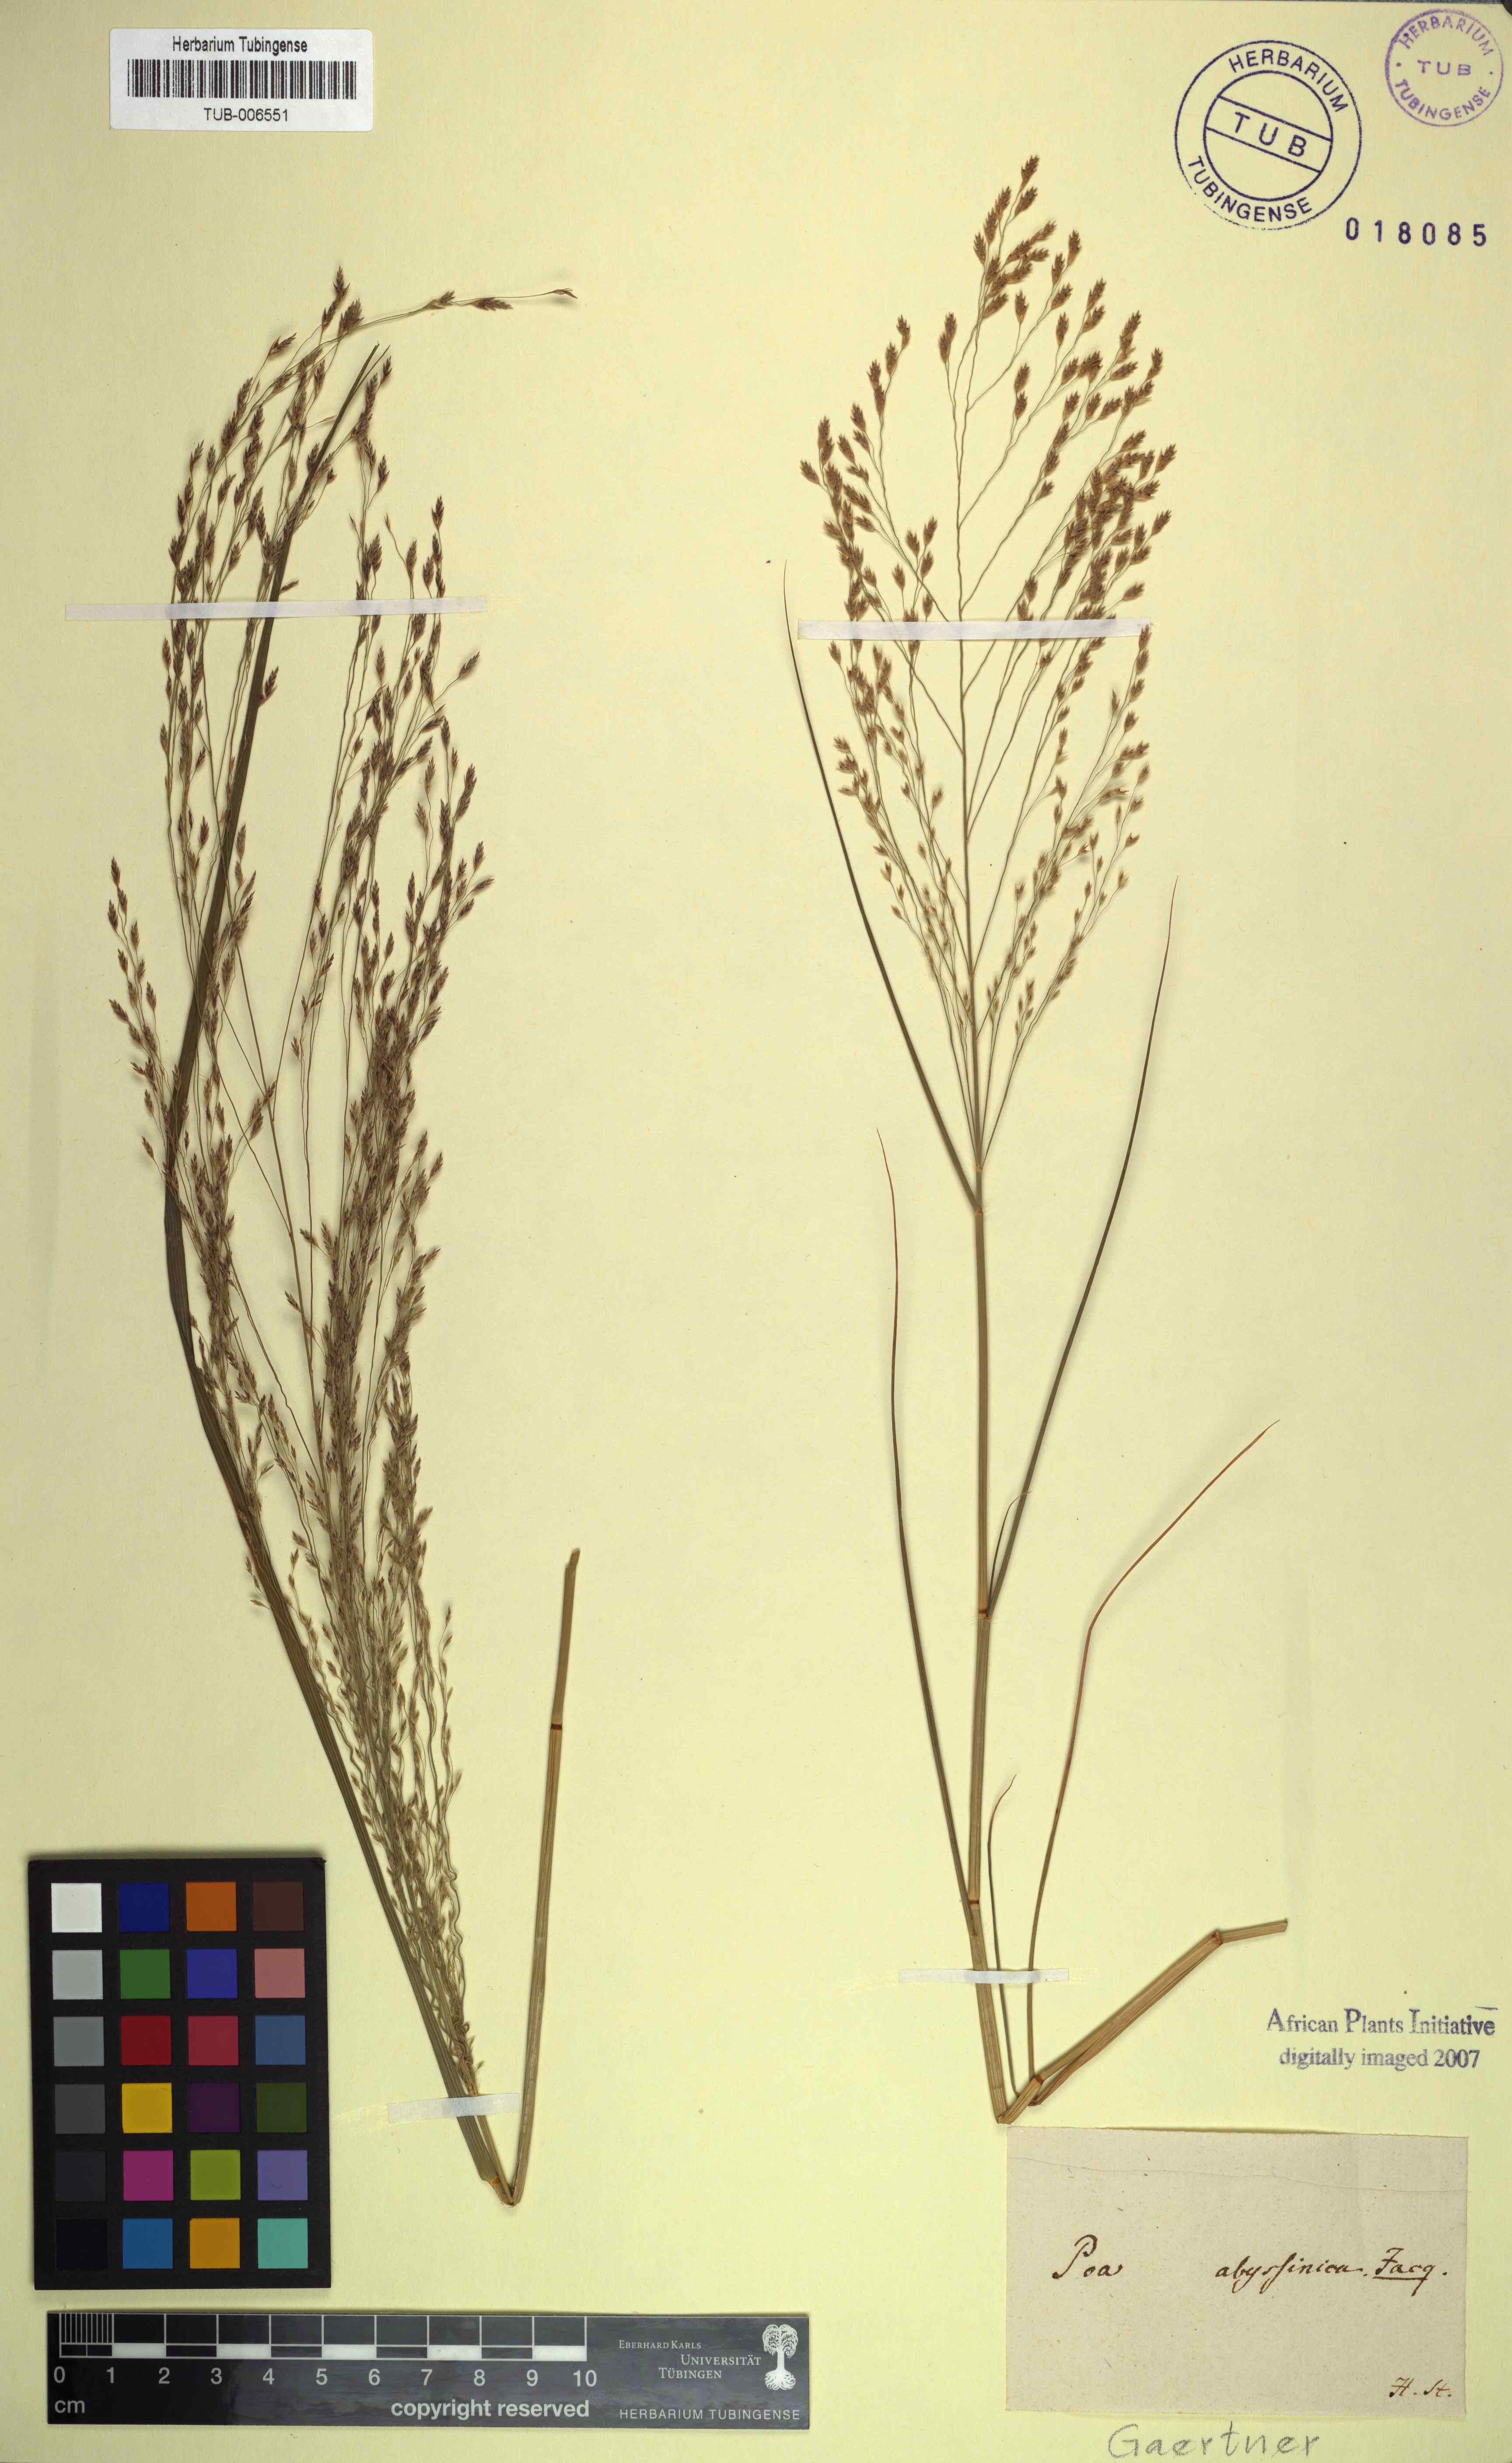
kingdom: Plantae
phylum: Tracheophyta
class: Liliopsida
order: Poales
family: Poaceae
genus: Eragrostis
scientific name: Eragrostis tef
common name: Teff
